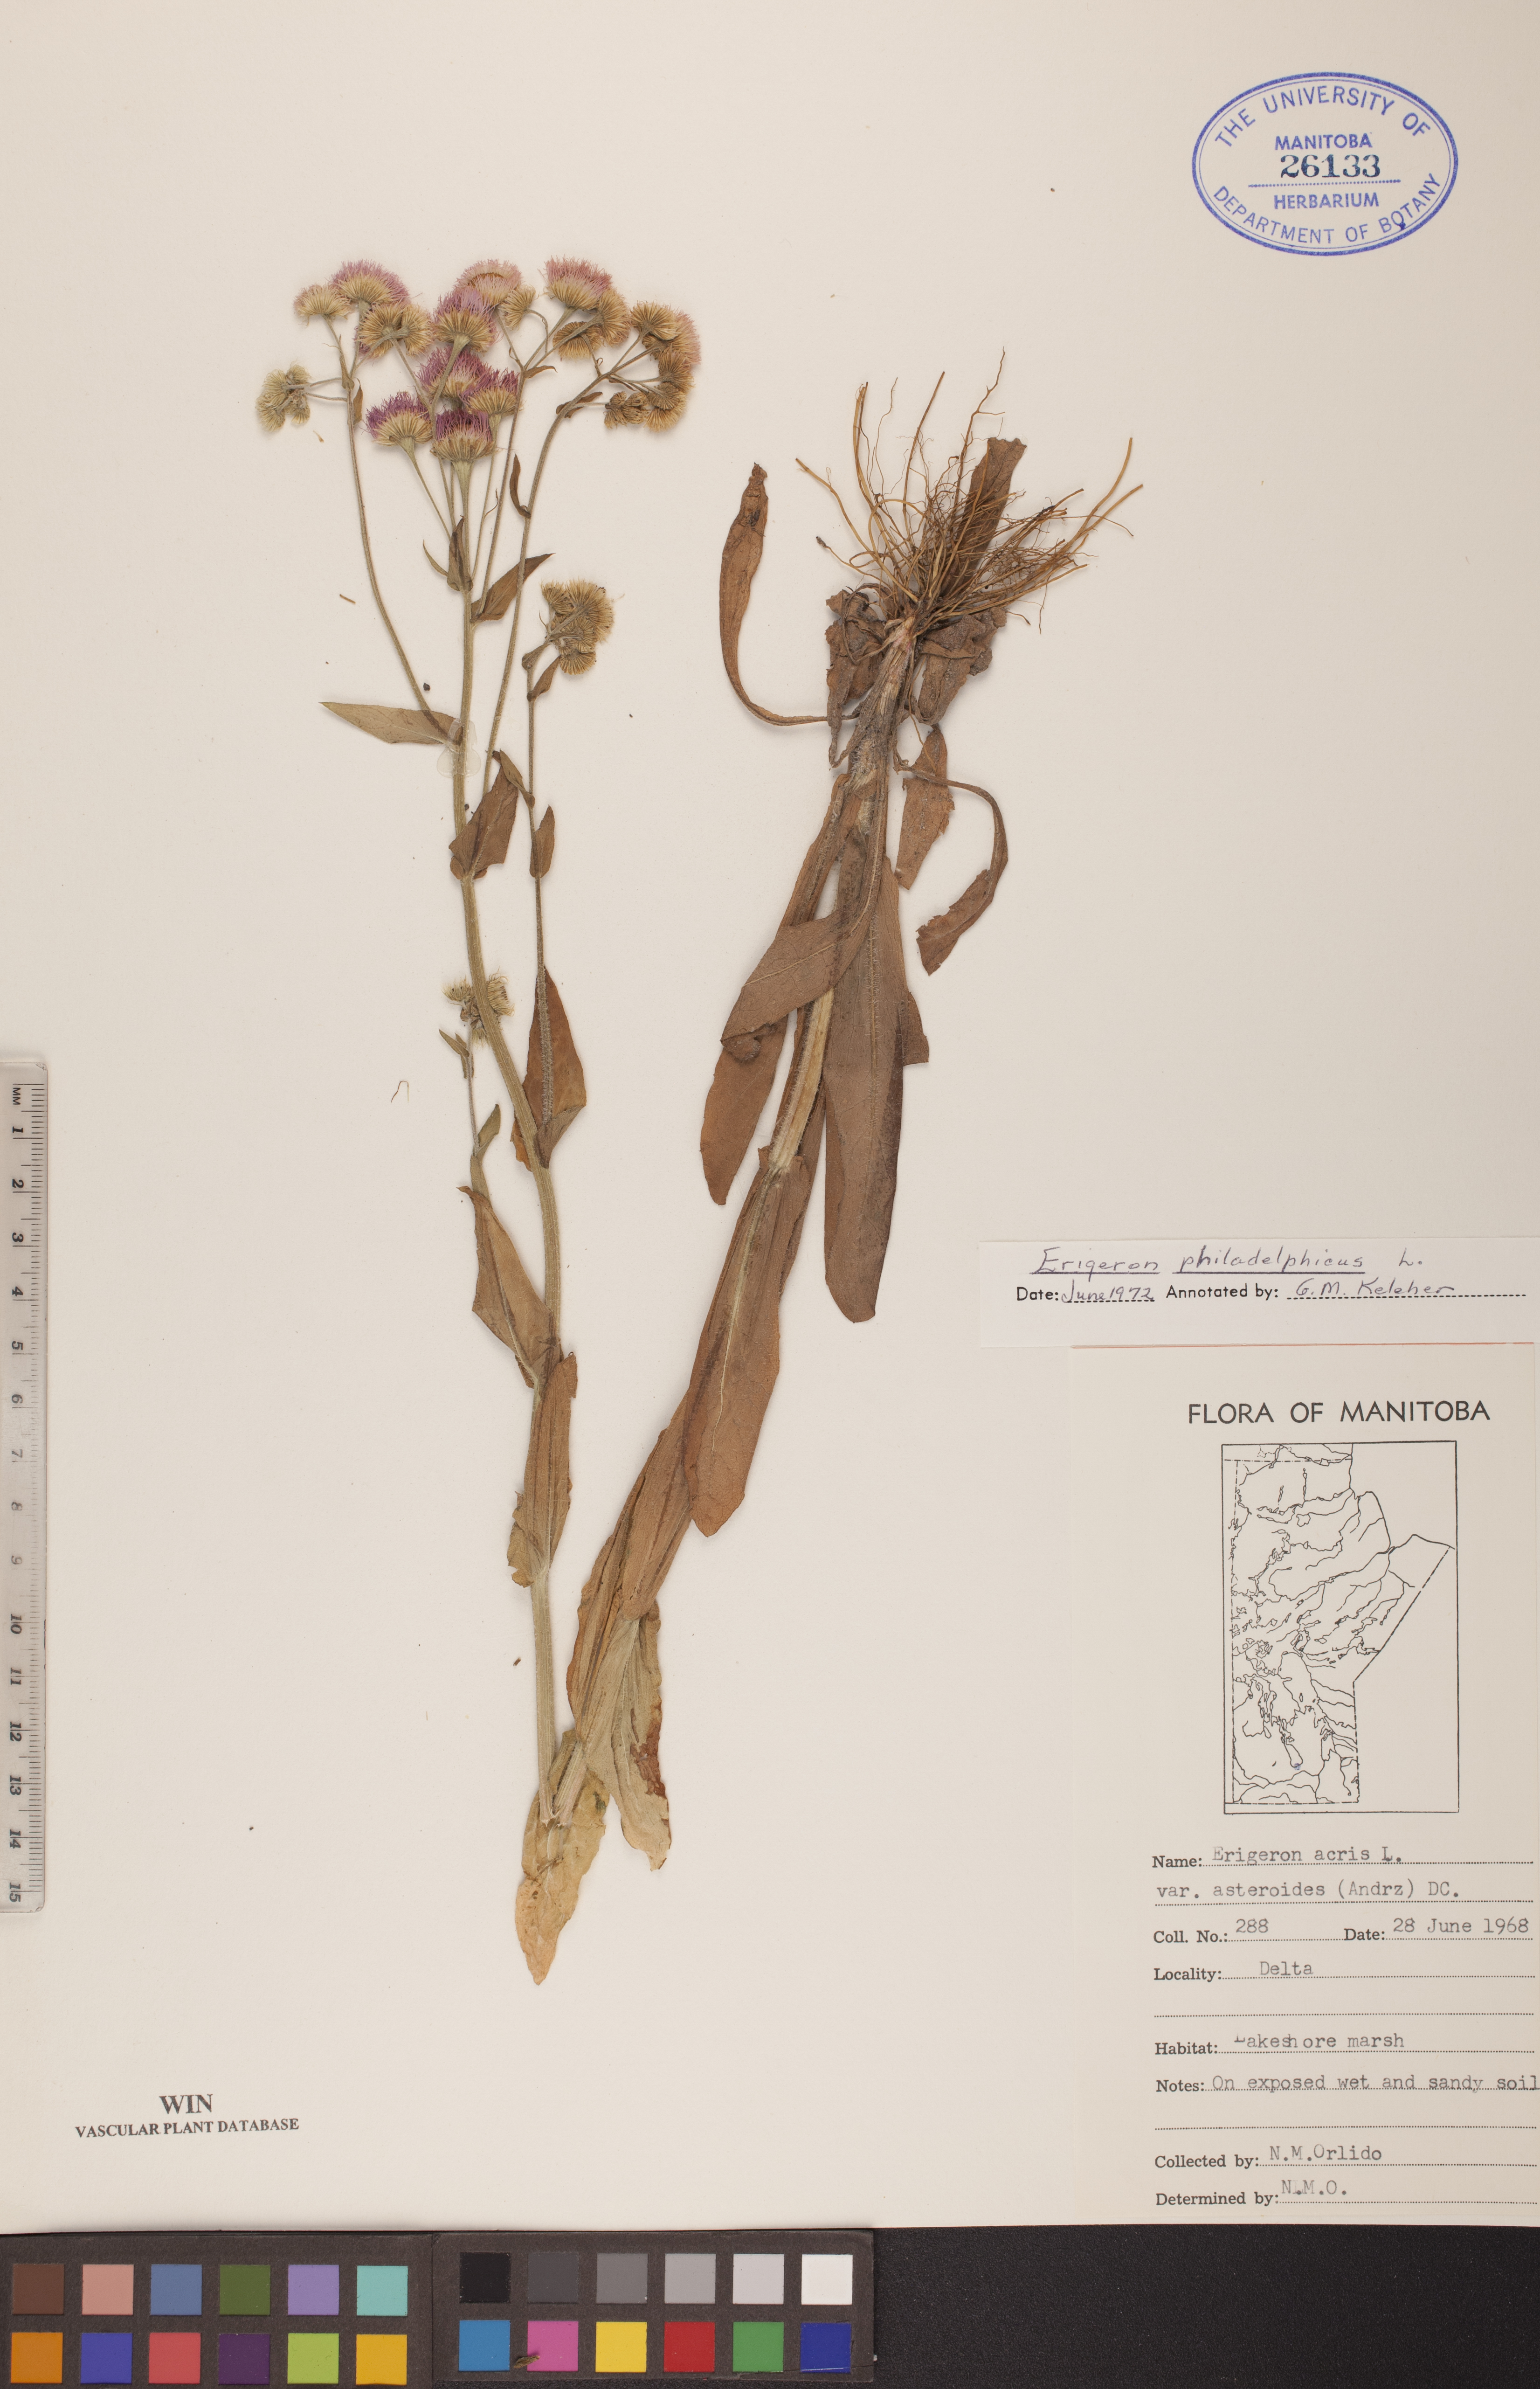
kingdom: Plantae
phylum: Tracheophyta
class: Magnoliopsida
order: Asterales
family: Asteraceae
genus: Erigeron
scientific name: Erigeron philadelphicus
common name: Robin's-plantain
